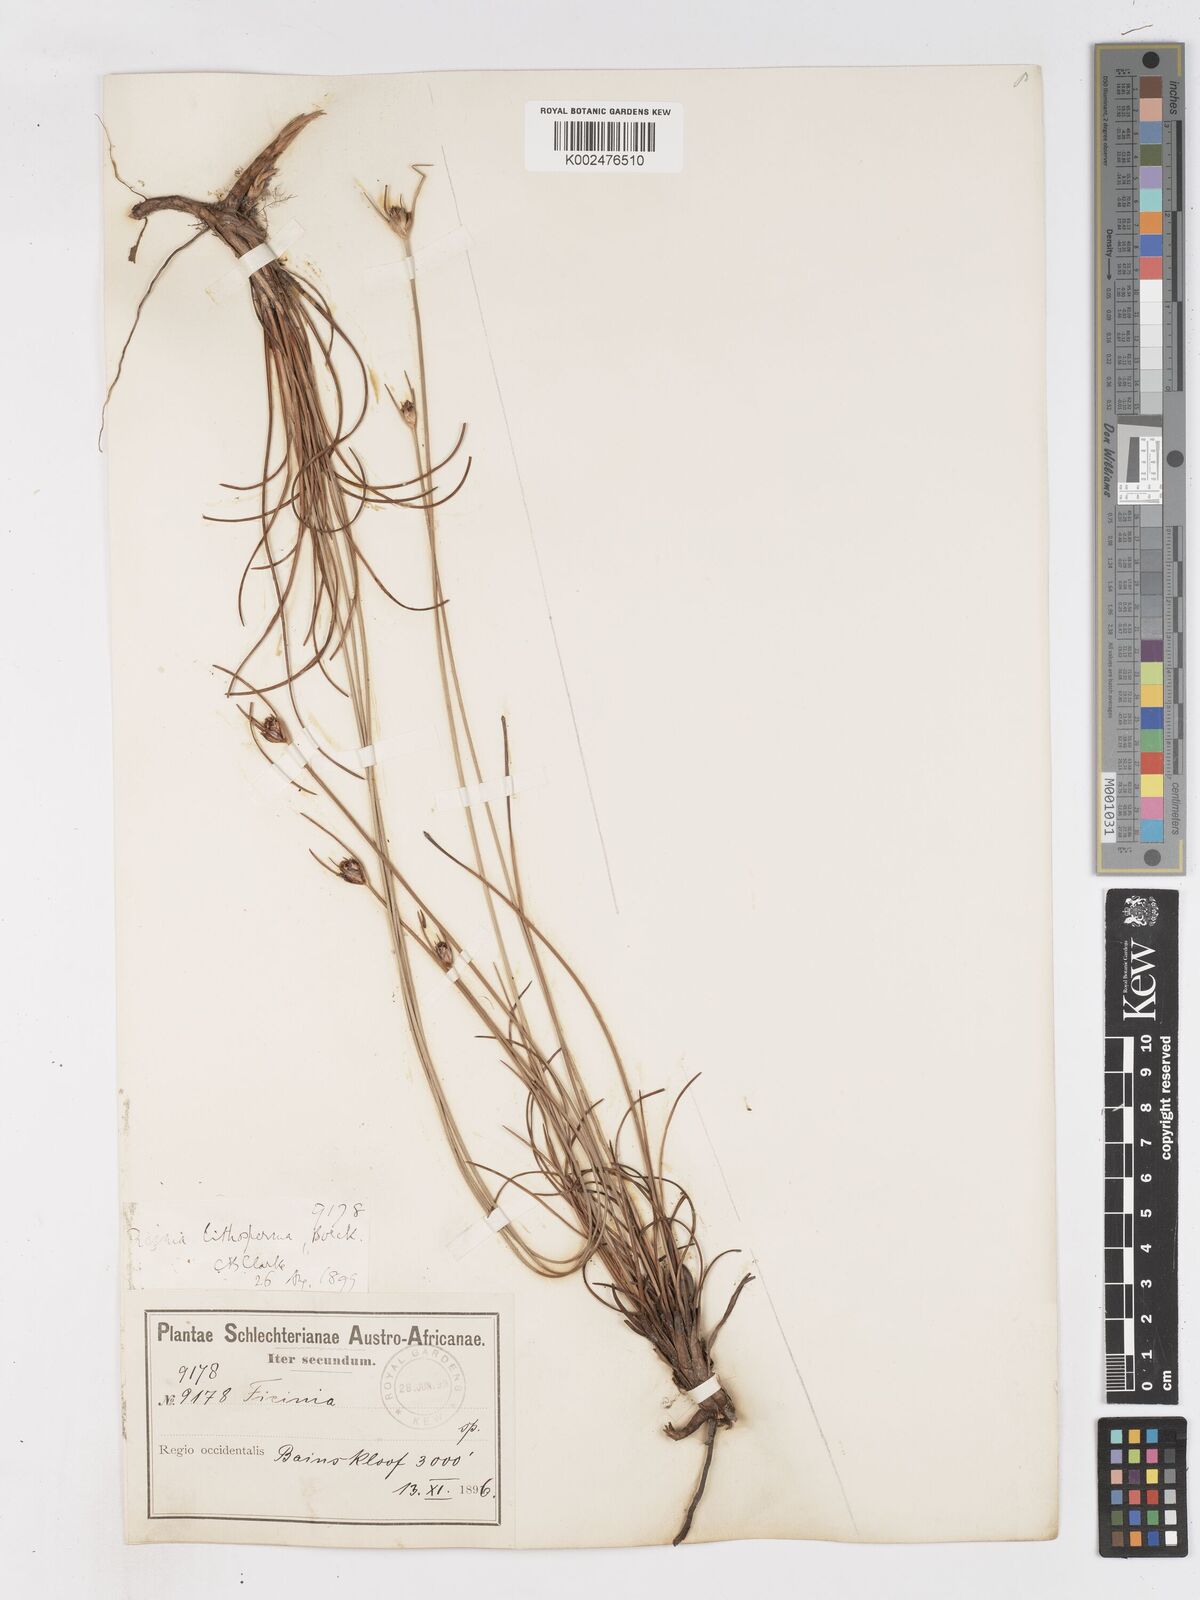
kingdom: Plantae
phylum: Tracheophyta
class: Liliopsida
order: Poales
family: Cyperaceae
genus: Ficinia
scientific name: Ficinia
